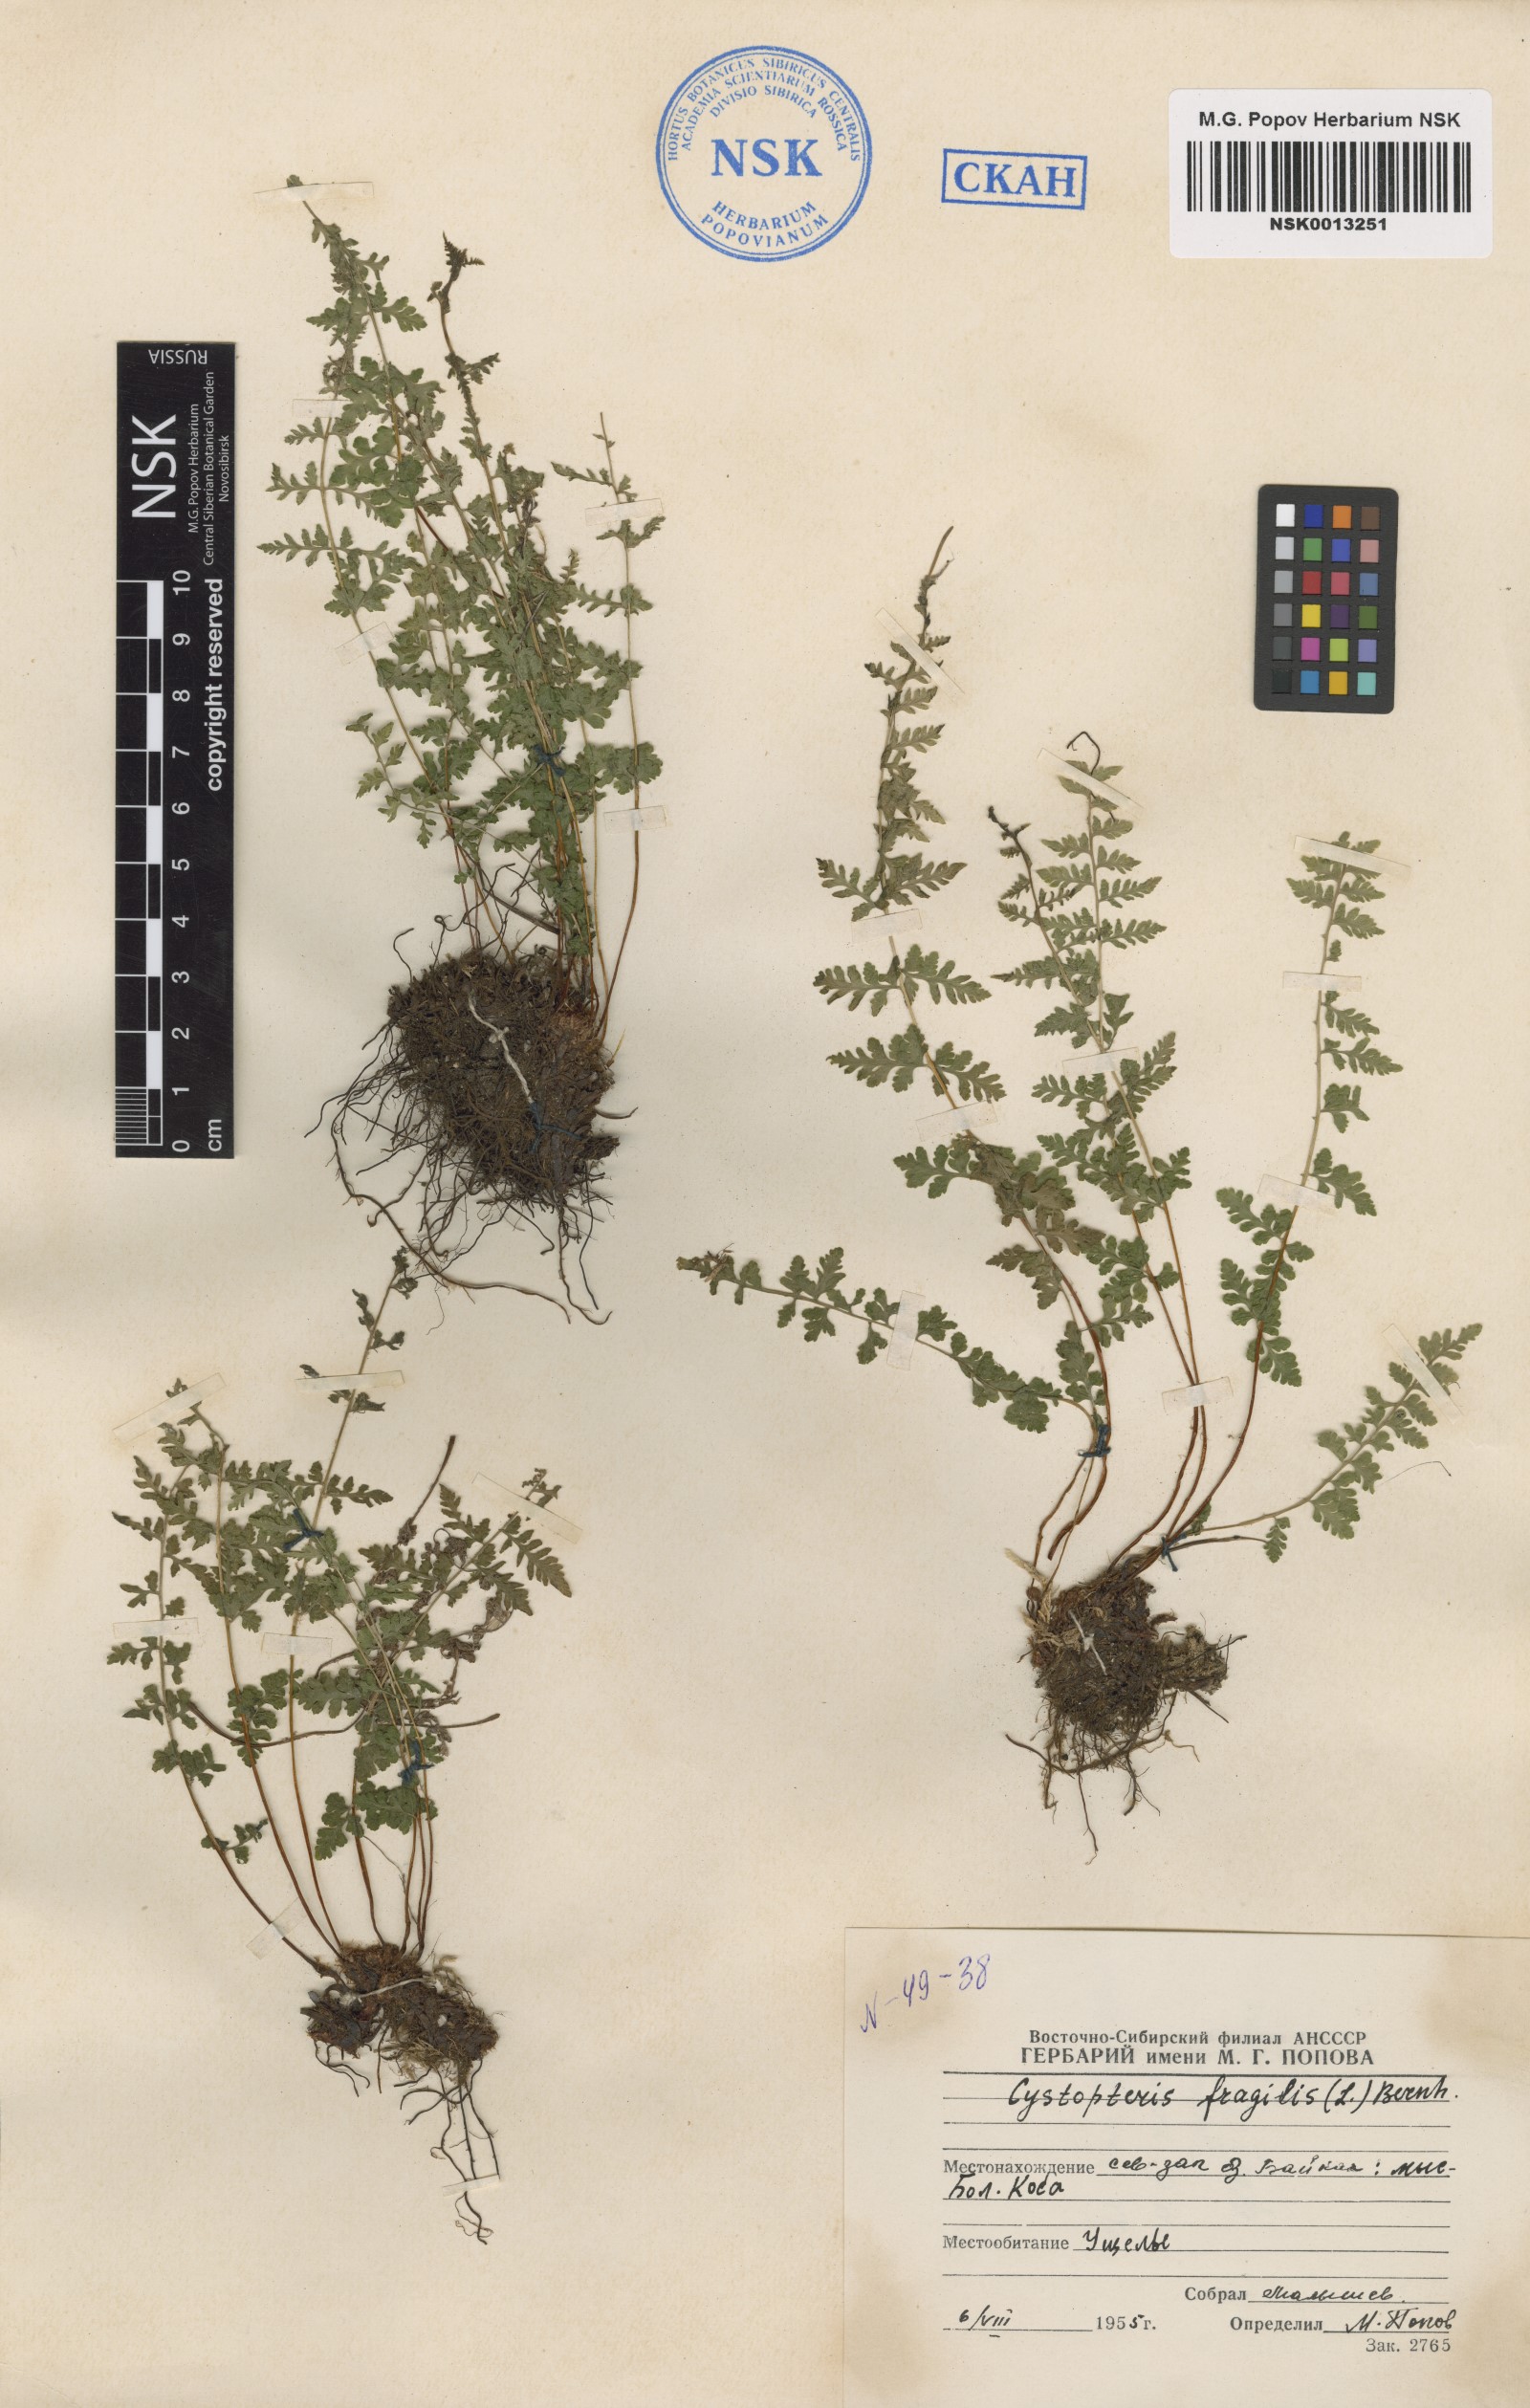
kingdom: Plantae
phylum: Tracheophyta
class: Polypodiopsida
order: Polypodiales
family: Cystopteridaceae
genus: Cystopteris
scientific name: Cystopteris fragilis
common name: Brittle bladder fern
